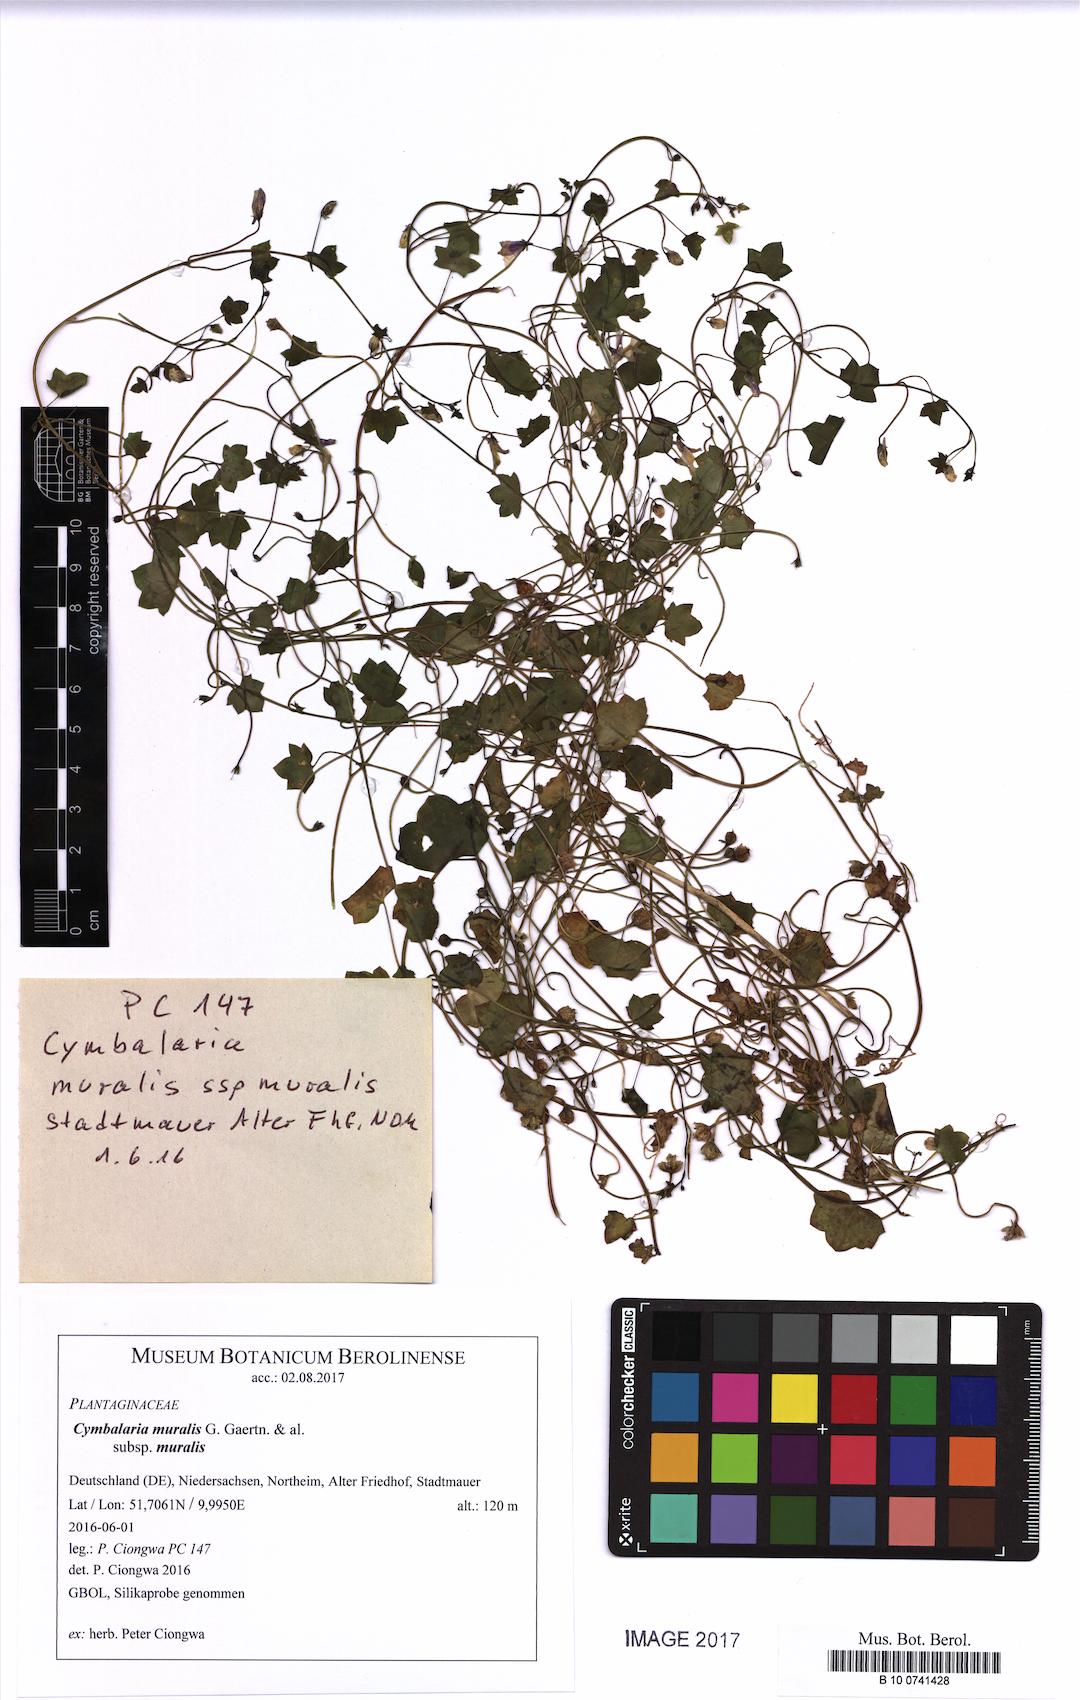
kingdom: Plantae
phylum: Tracheophyta
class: Magnoliopsida
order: Lamiales
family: Plantaginaceae
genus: Cymbalaria
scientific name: Cymbalaria muralis
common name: Ivy-leaved toadflax
